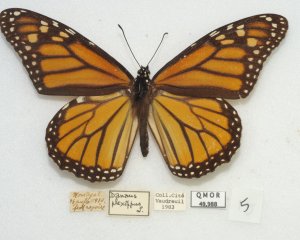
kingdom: Animalia
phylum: Arthropoda
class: Insecta
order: Lepidoptera
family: Nymphalidae
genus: Danaus
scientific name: Danaus plexippus
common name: Monarch
